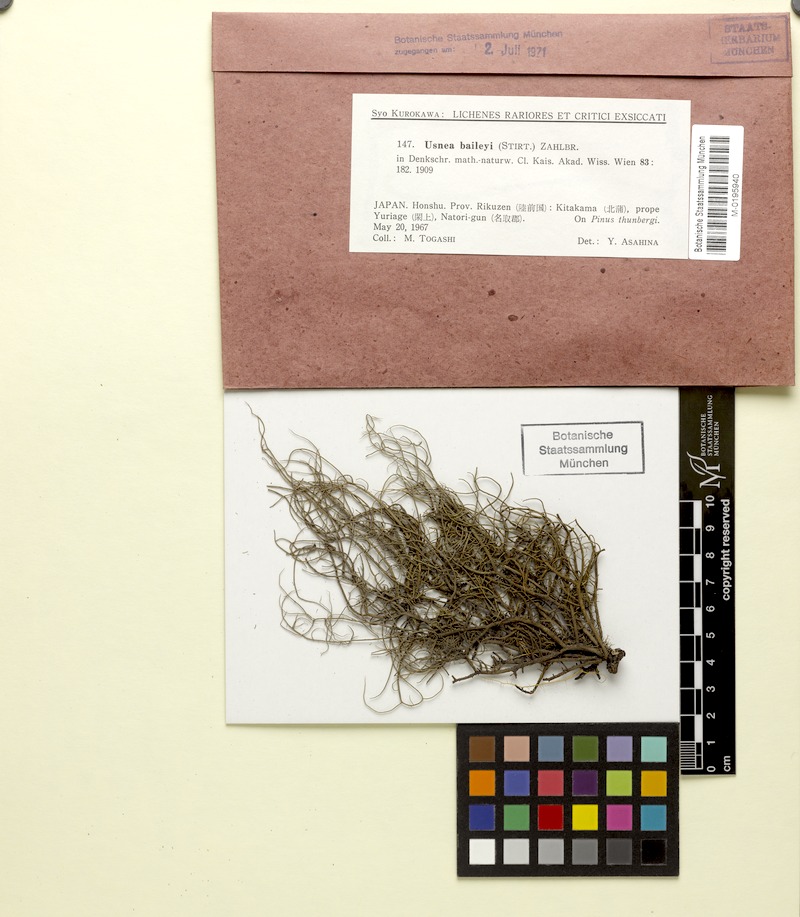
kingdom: Fungi
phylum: Ascomycota
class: Lecanoromycetes
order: Lecanorales
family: Parmeliaceae
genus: Eumitria
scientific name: Eumitria baileyi
